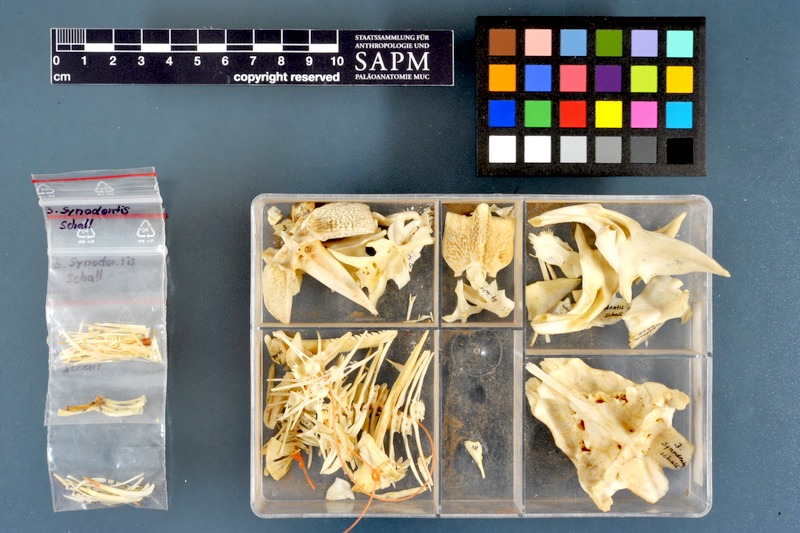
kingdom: Animalia
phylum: Chordata
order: Siluriformes
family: Mochokidae
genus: Synodontis
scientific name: Synodontis schall
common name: Wahrindi
